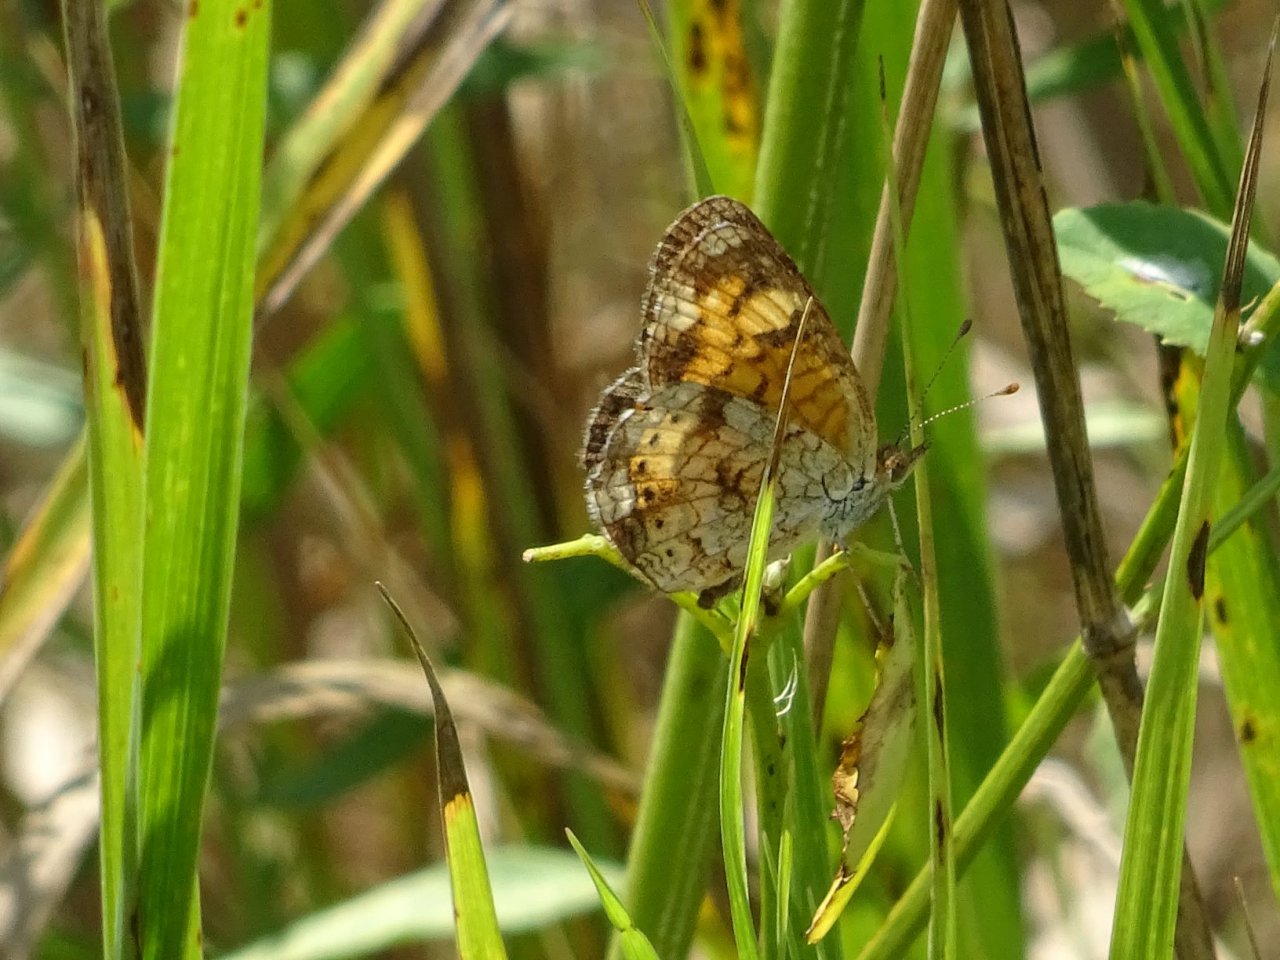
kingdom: Animalia
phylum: Arthropoda
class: Insecta
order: Lepidoptera
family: Nymphalidae
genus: Phyciodes
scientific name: Phyciodes tharos
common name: Northern Crescent
